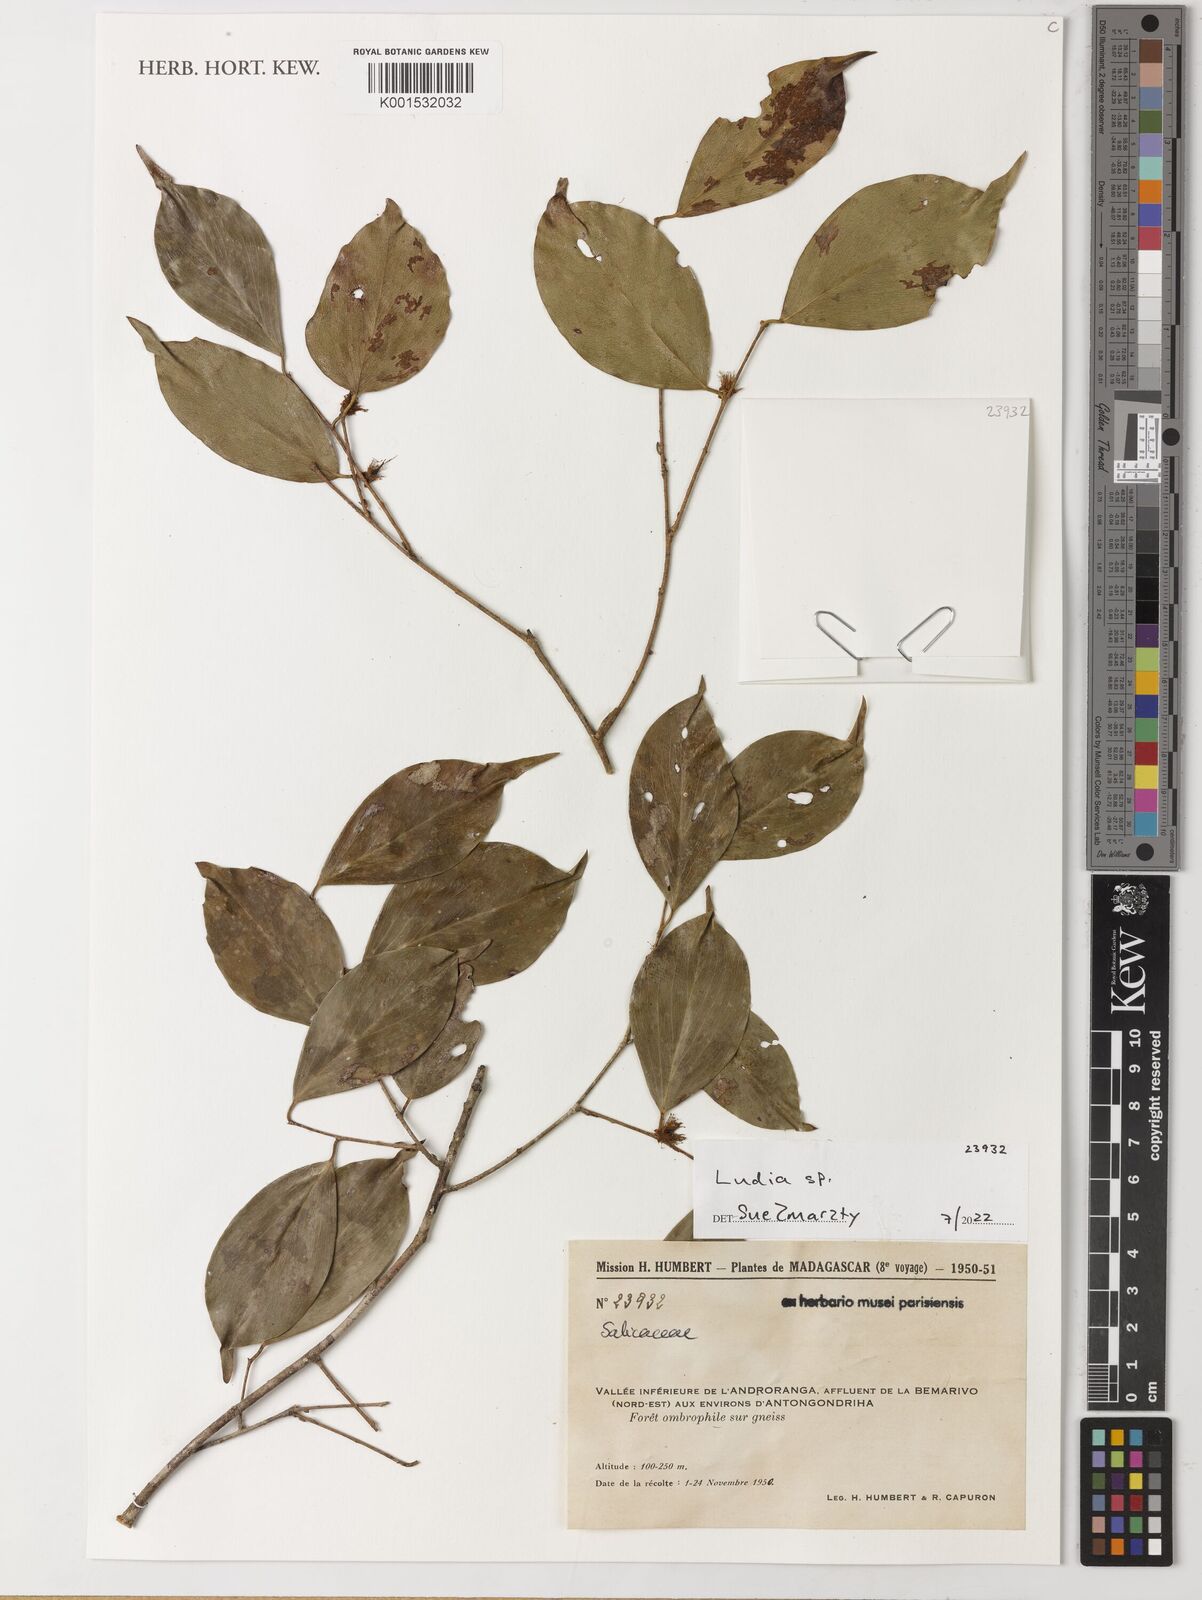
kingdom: Plantae
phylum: Tracheophyta
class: Magnoliopsida
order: Malpighiales
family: Salicaceae
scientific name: Salicaceae
